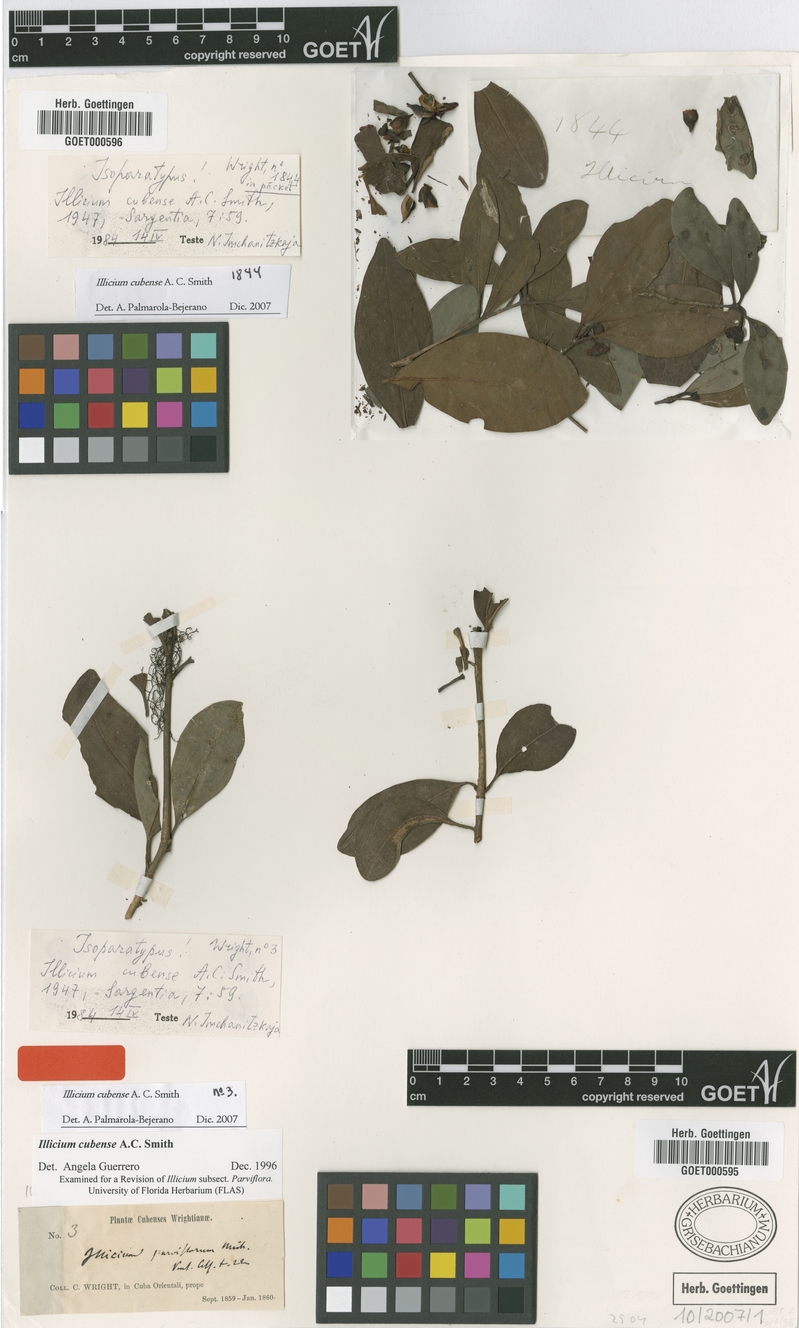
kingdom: Plantae
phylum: Tracheophyta
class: Magnoliopsida
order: Austrobaileyales
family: Schisandraceae
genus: Illicium
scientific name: Illicium cubense
